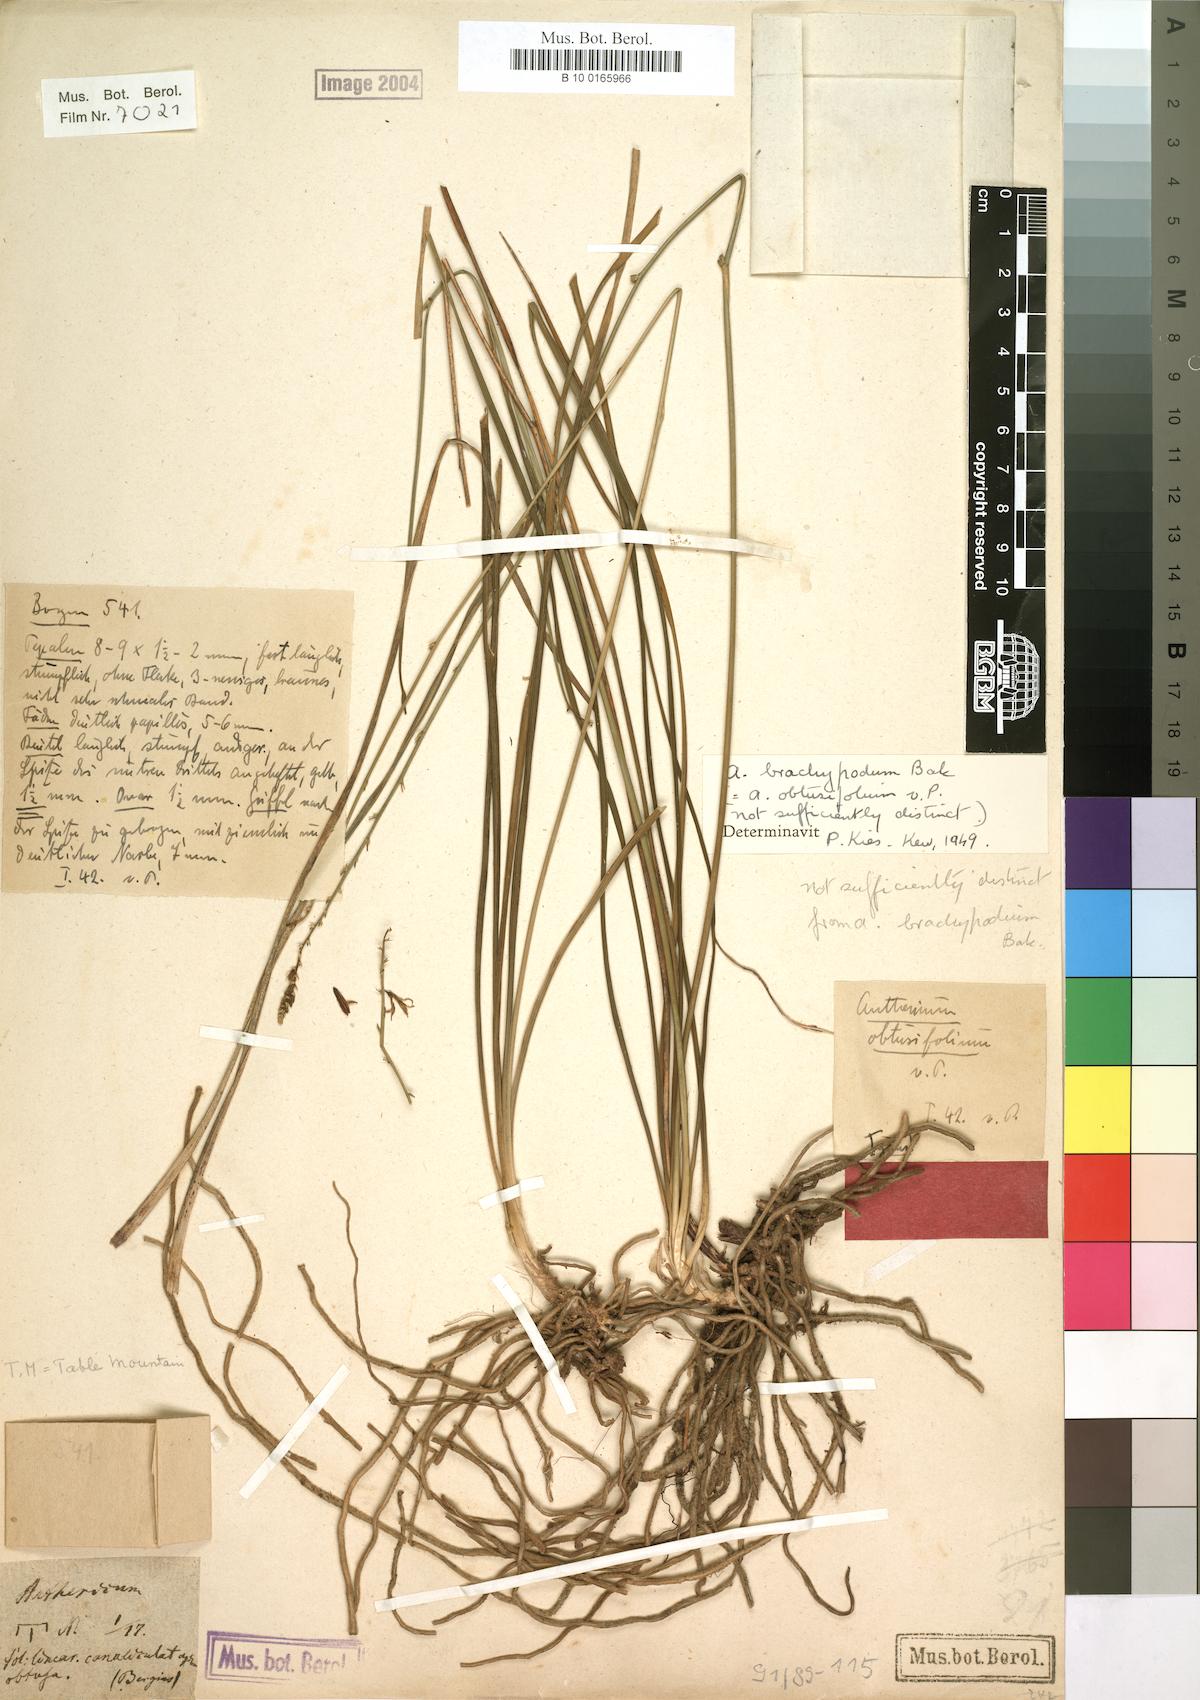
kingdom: Plantae
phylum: Tracheophyta
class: Liliopsida
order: Asparagales
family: Asphodelaceae
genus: Trachyandra
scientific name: Trachyandra brachypoda
